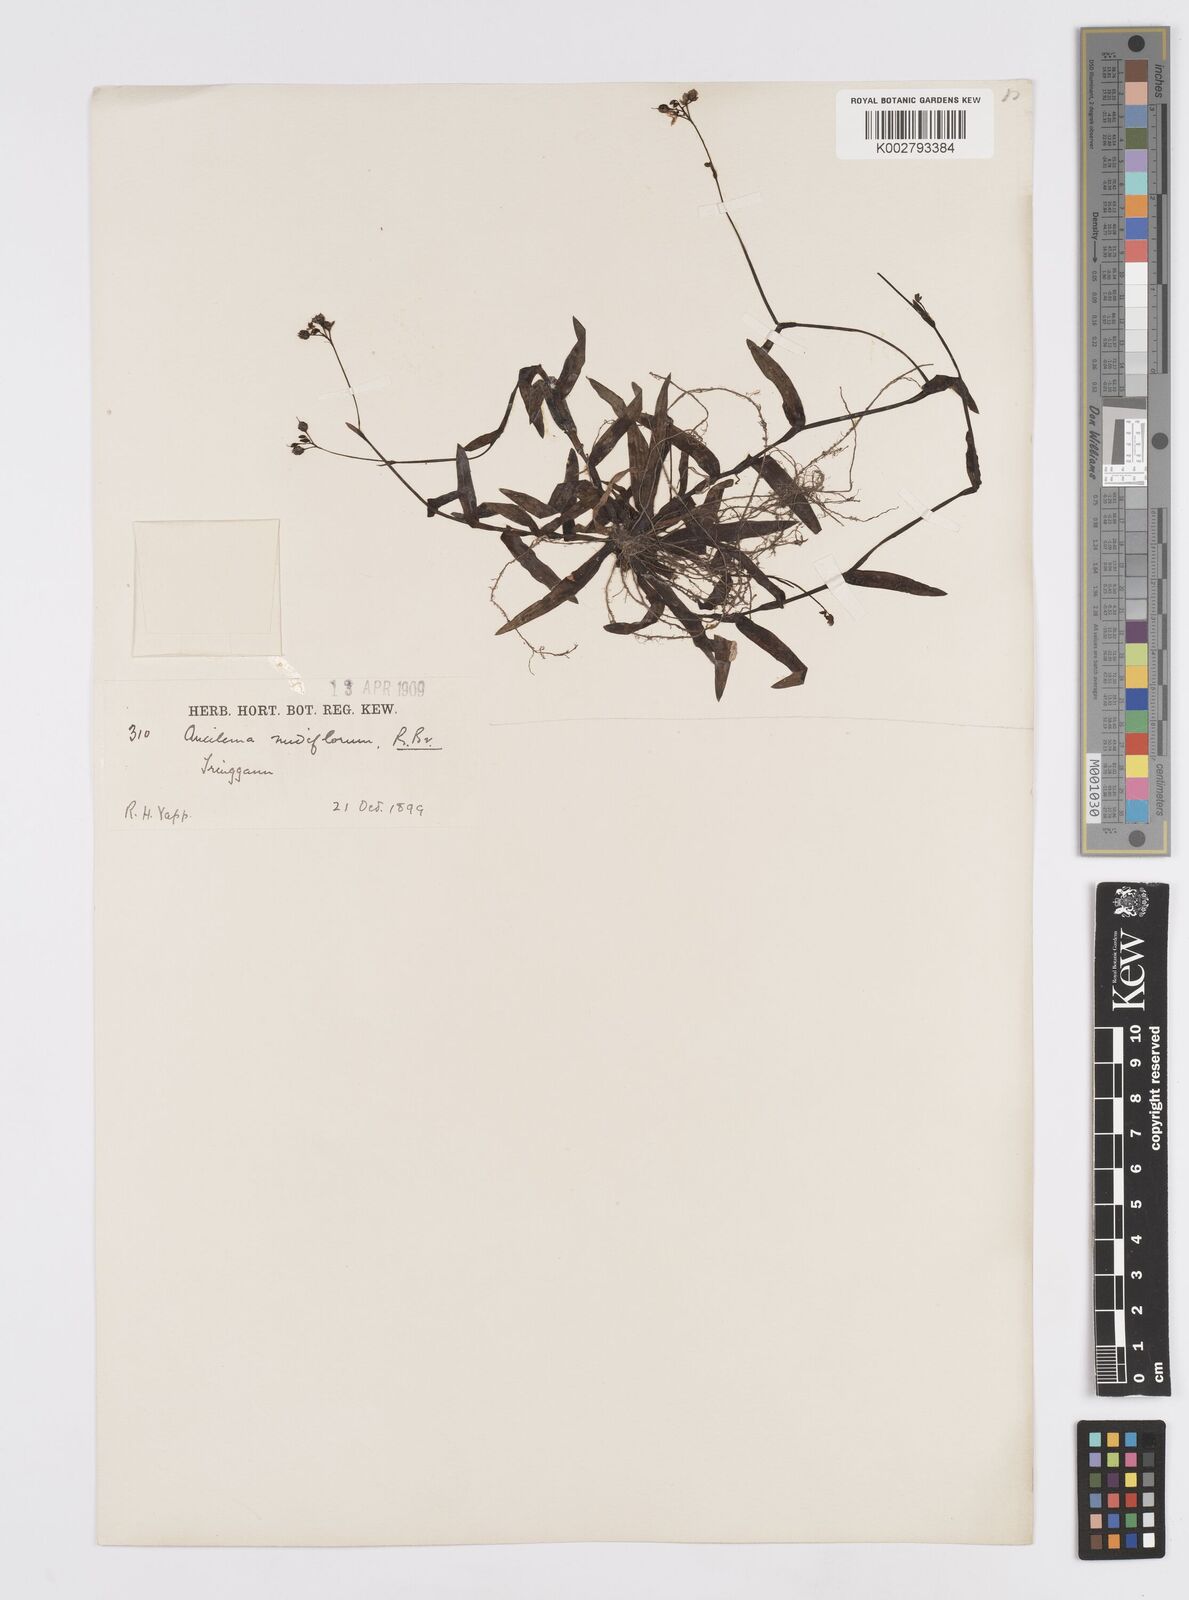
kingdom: Plantae
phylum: Tracheophyta
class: Liliopsida
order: Commelinales
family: Commelinaceae
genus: Murdannia
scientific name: Murdannia
